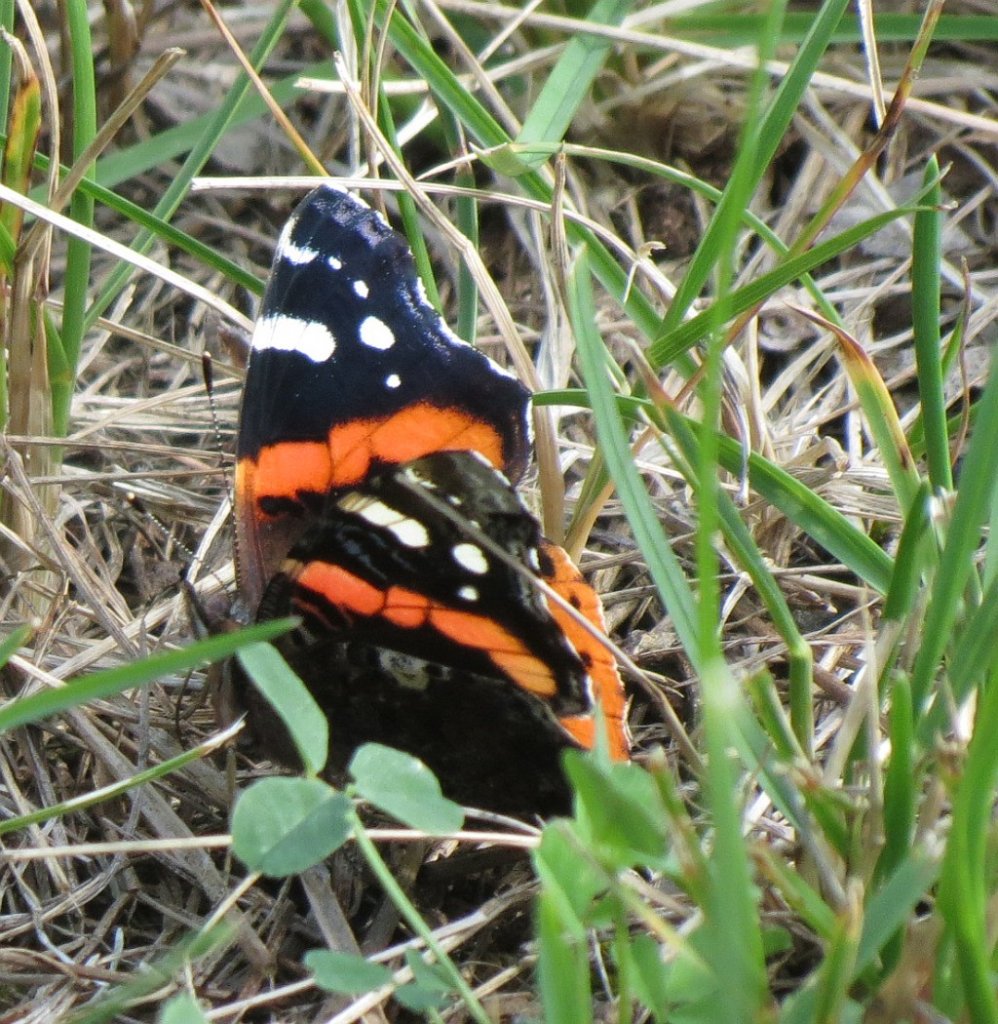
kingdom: Animalia
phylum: Arthropoda
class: Insecta
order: Lepidoptera
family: Nymphalidae
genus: Vanessa
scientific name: Vanessa atalanta
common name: Red Admiral
